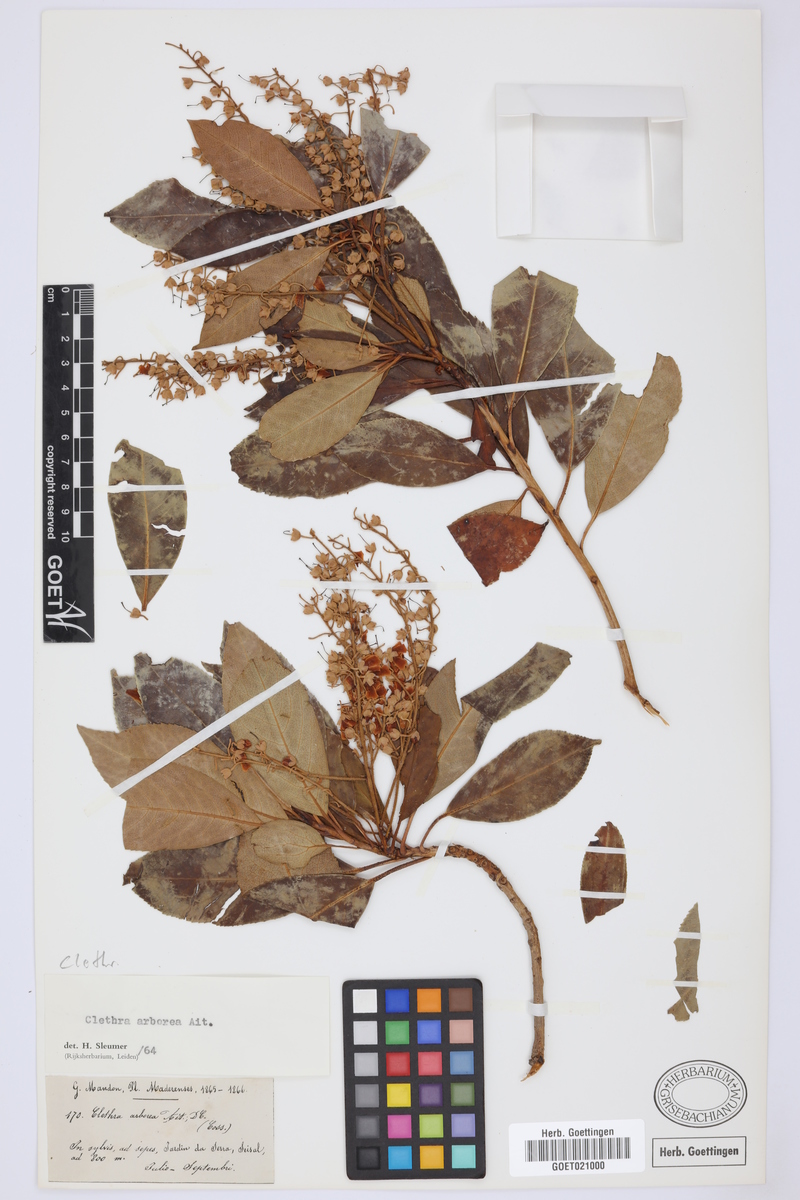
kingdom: Plantae
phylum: Tracheophyta
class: Magnoliopsida
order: Ericales
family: Clethraceae
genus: Clethra
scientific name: Clethra arborea
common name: Lily-of-the-valley-tree
